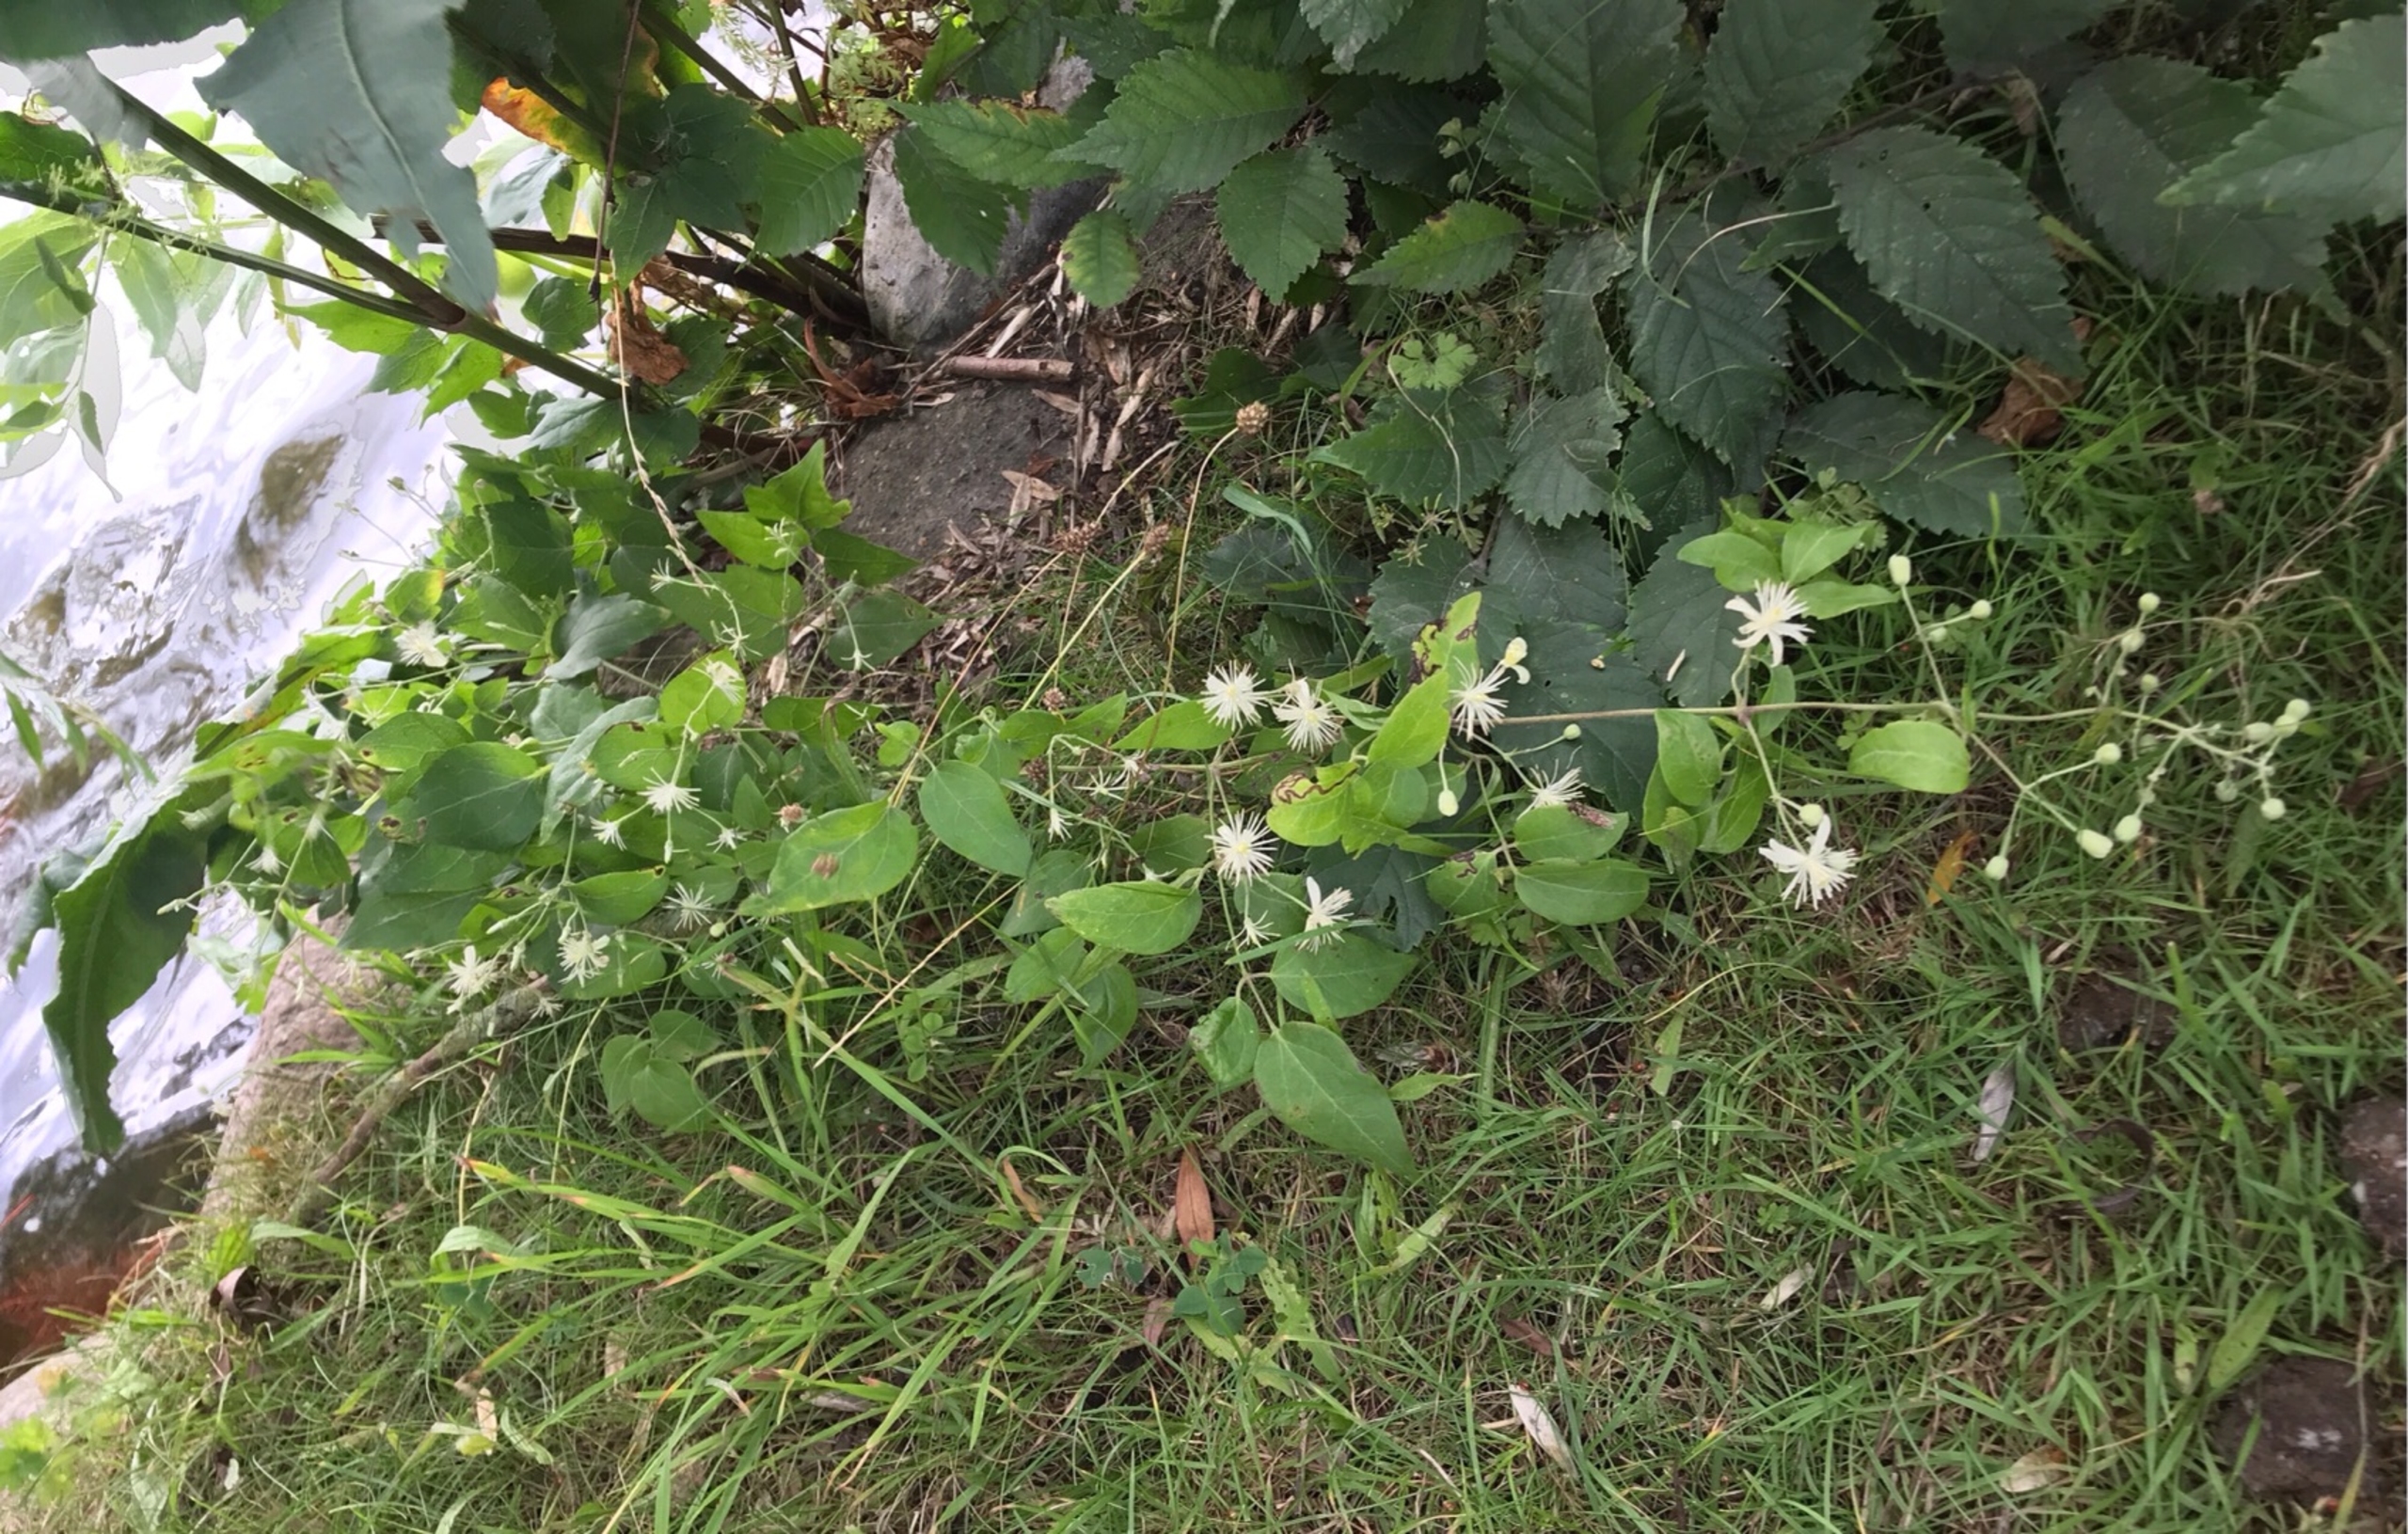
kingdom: Plantae
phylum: Tracheophyta
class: Magnoliopsida
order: Ranunculales
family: Ranunculaceae
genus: Clematis
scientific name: Clematis vitalba
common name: Skovranke
